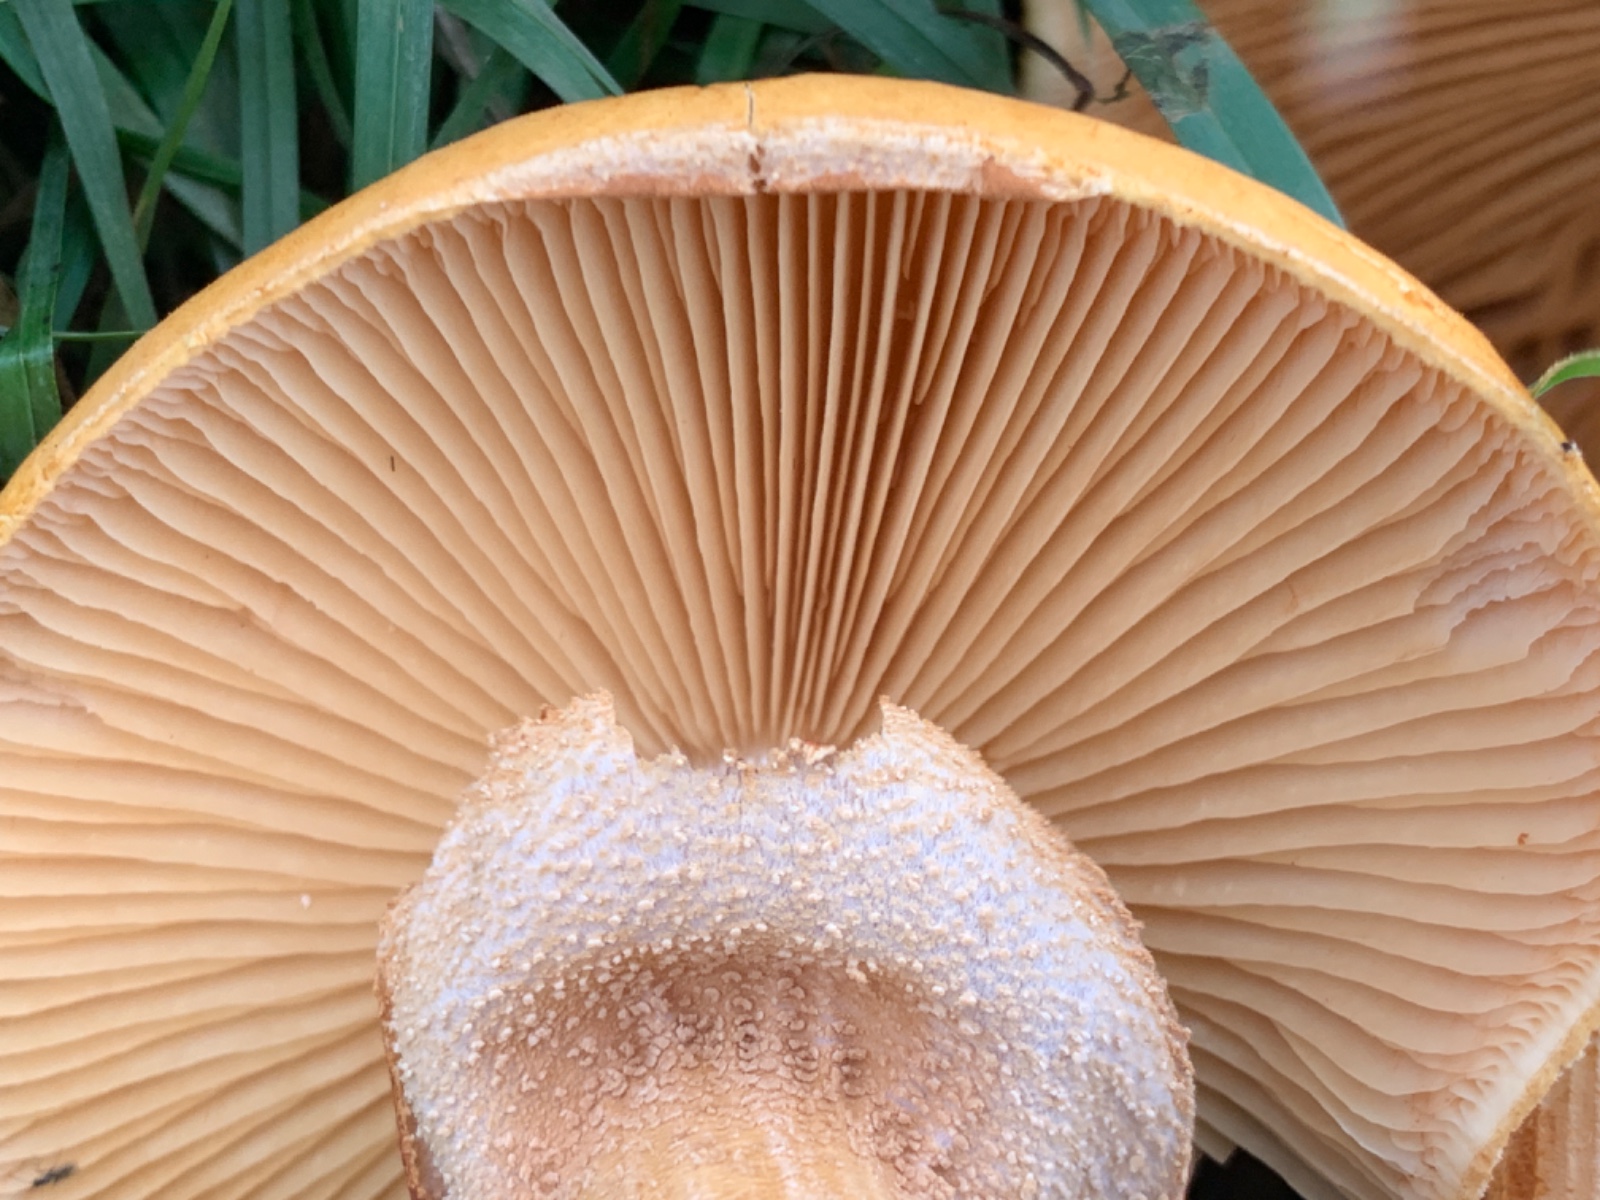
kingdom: Fungi
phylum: Basidiomycota
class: Agaricomycetes
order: Agaricales
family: Tricholomataceae
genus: Phaeolepiota
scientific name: Phaeolepiota aurea
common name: gyldenhat
